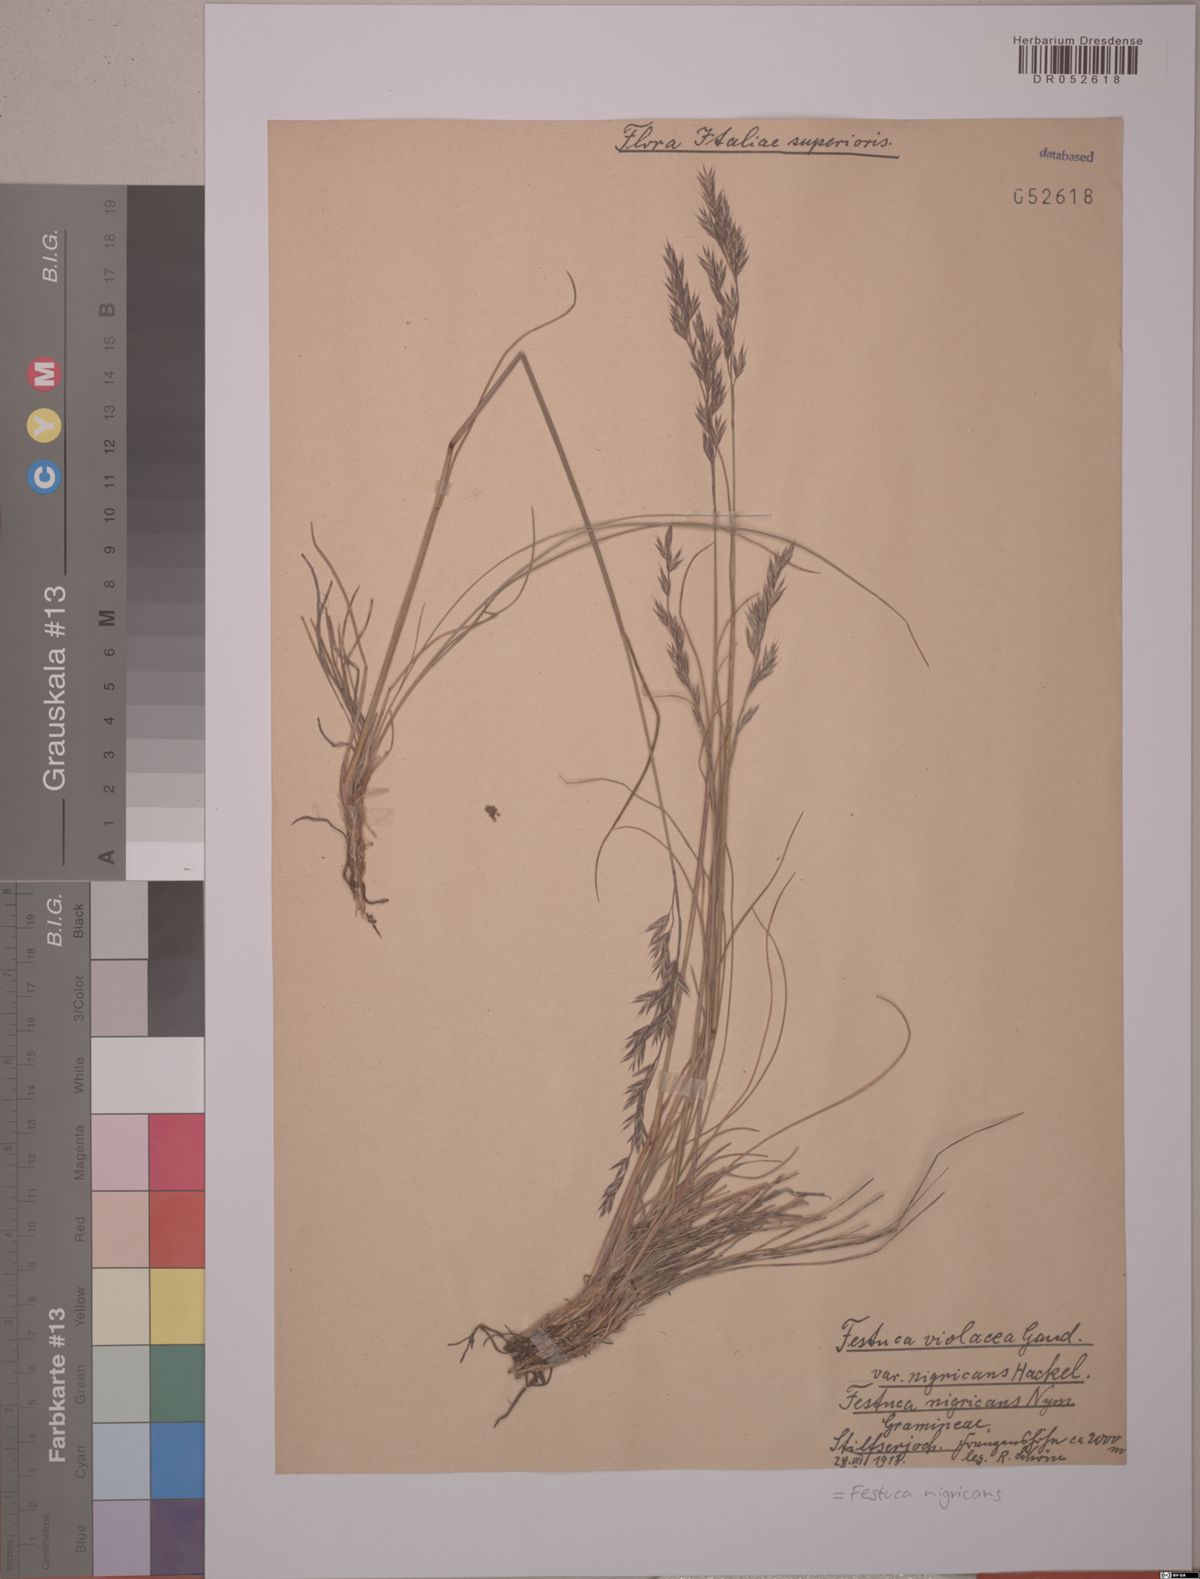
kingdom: Plantae
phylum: Tracheophyta
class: Liliopsida
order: Poales
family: Poaceae
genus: Festuca
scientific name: Festuca violacea
